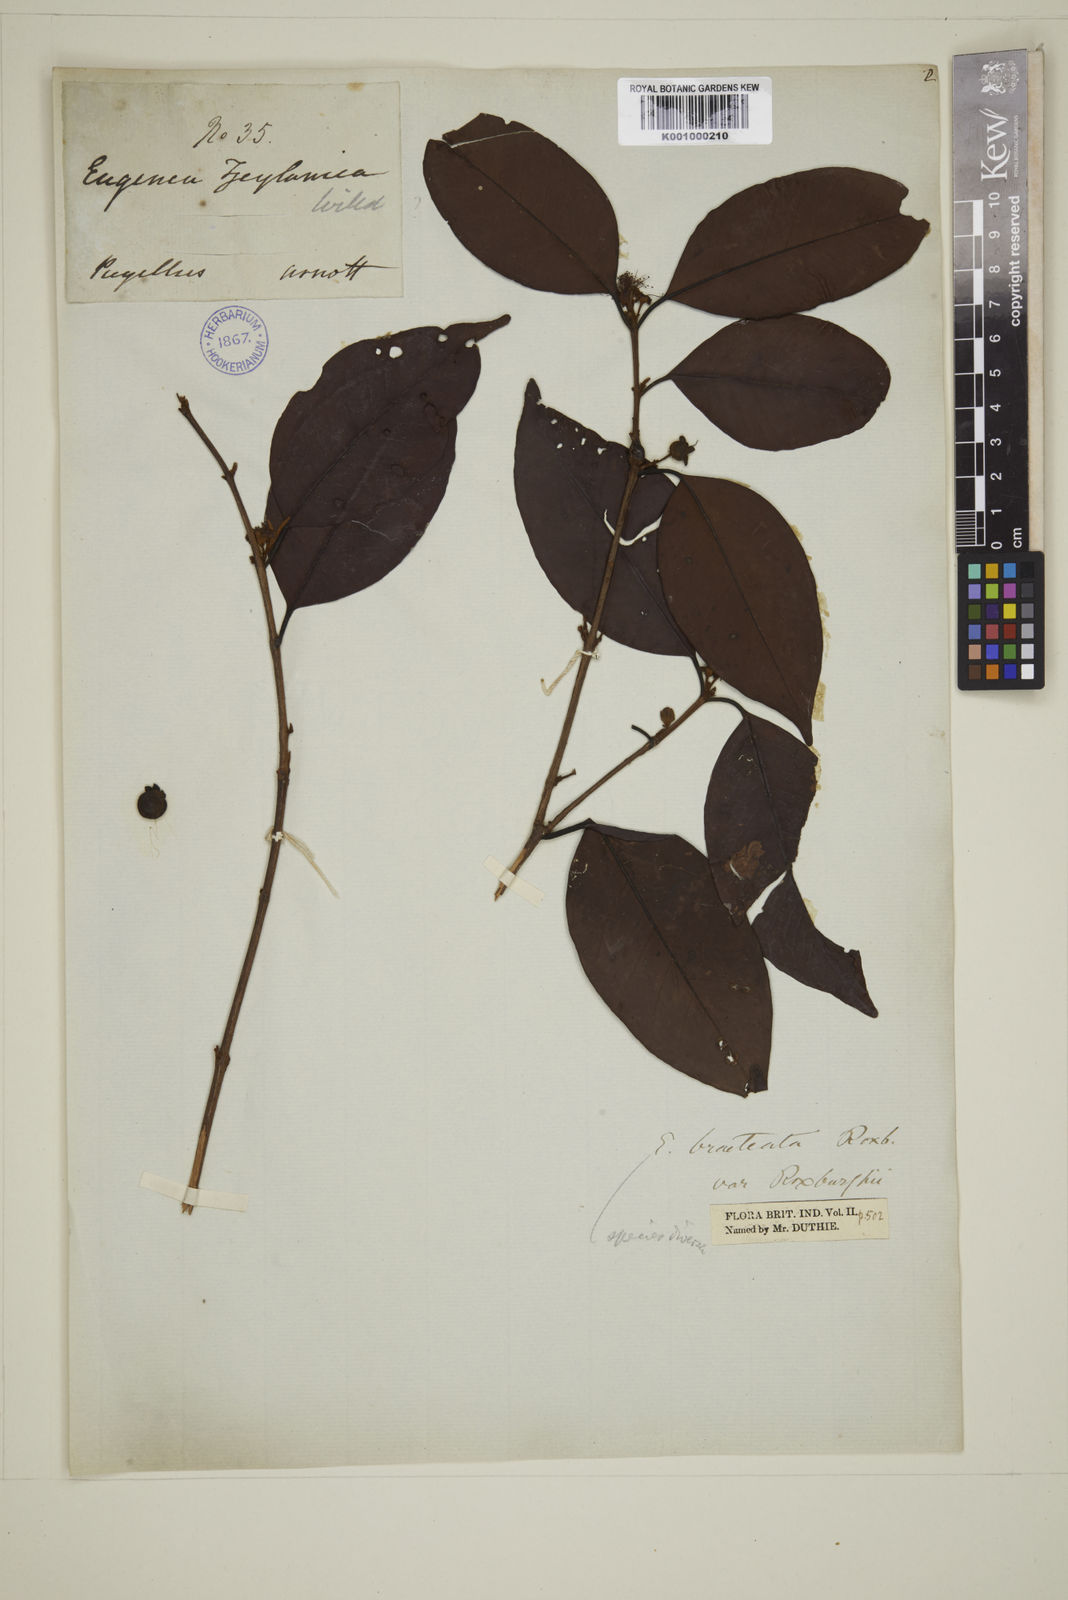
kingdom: Plantae
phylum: Tracheophyta
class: Magnoliopsida
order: Myrtales
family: Myrtaceae
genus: Eugenia
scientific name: Eugenia pseudopsidium
